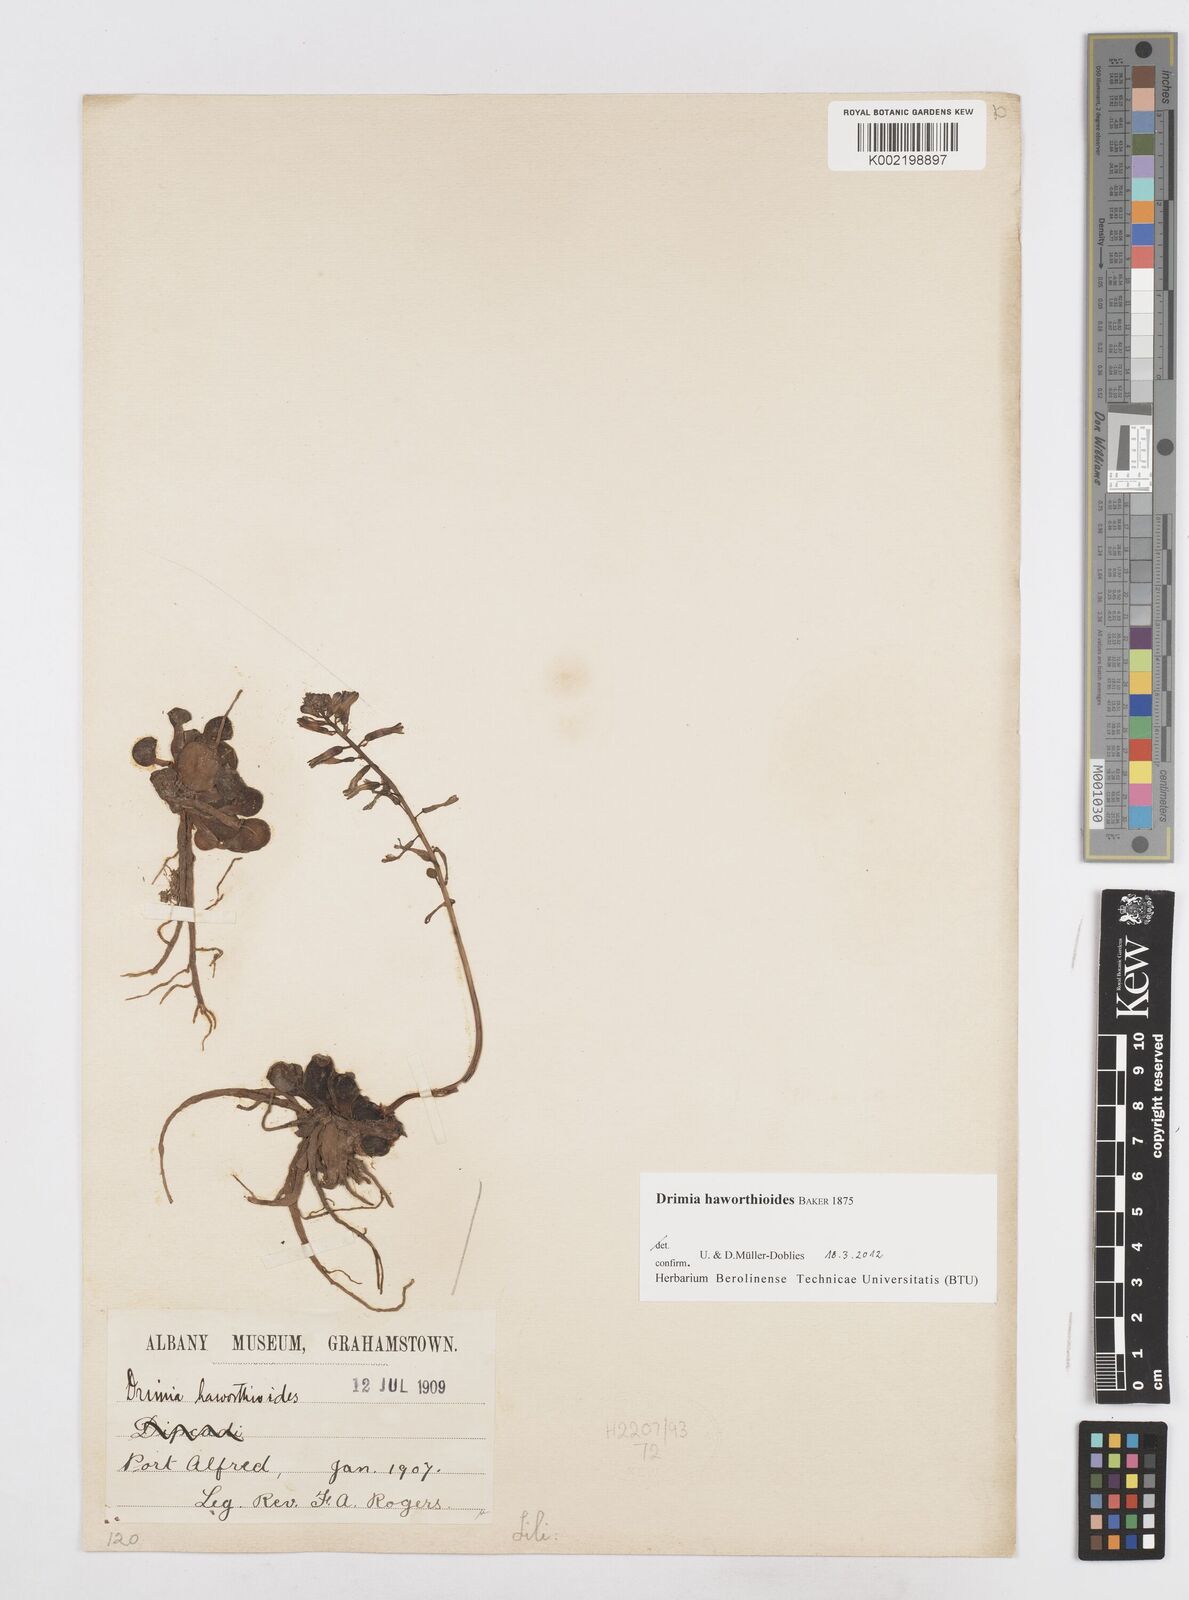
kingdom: Plantae
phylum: Tracheophyta
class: Liliopsida
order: Asparagales
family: Asparagaceae
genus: Drimia
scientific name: Drimia haworthioides
